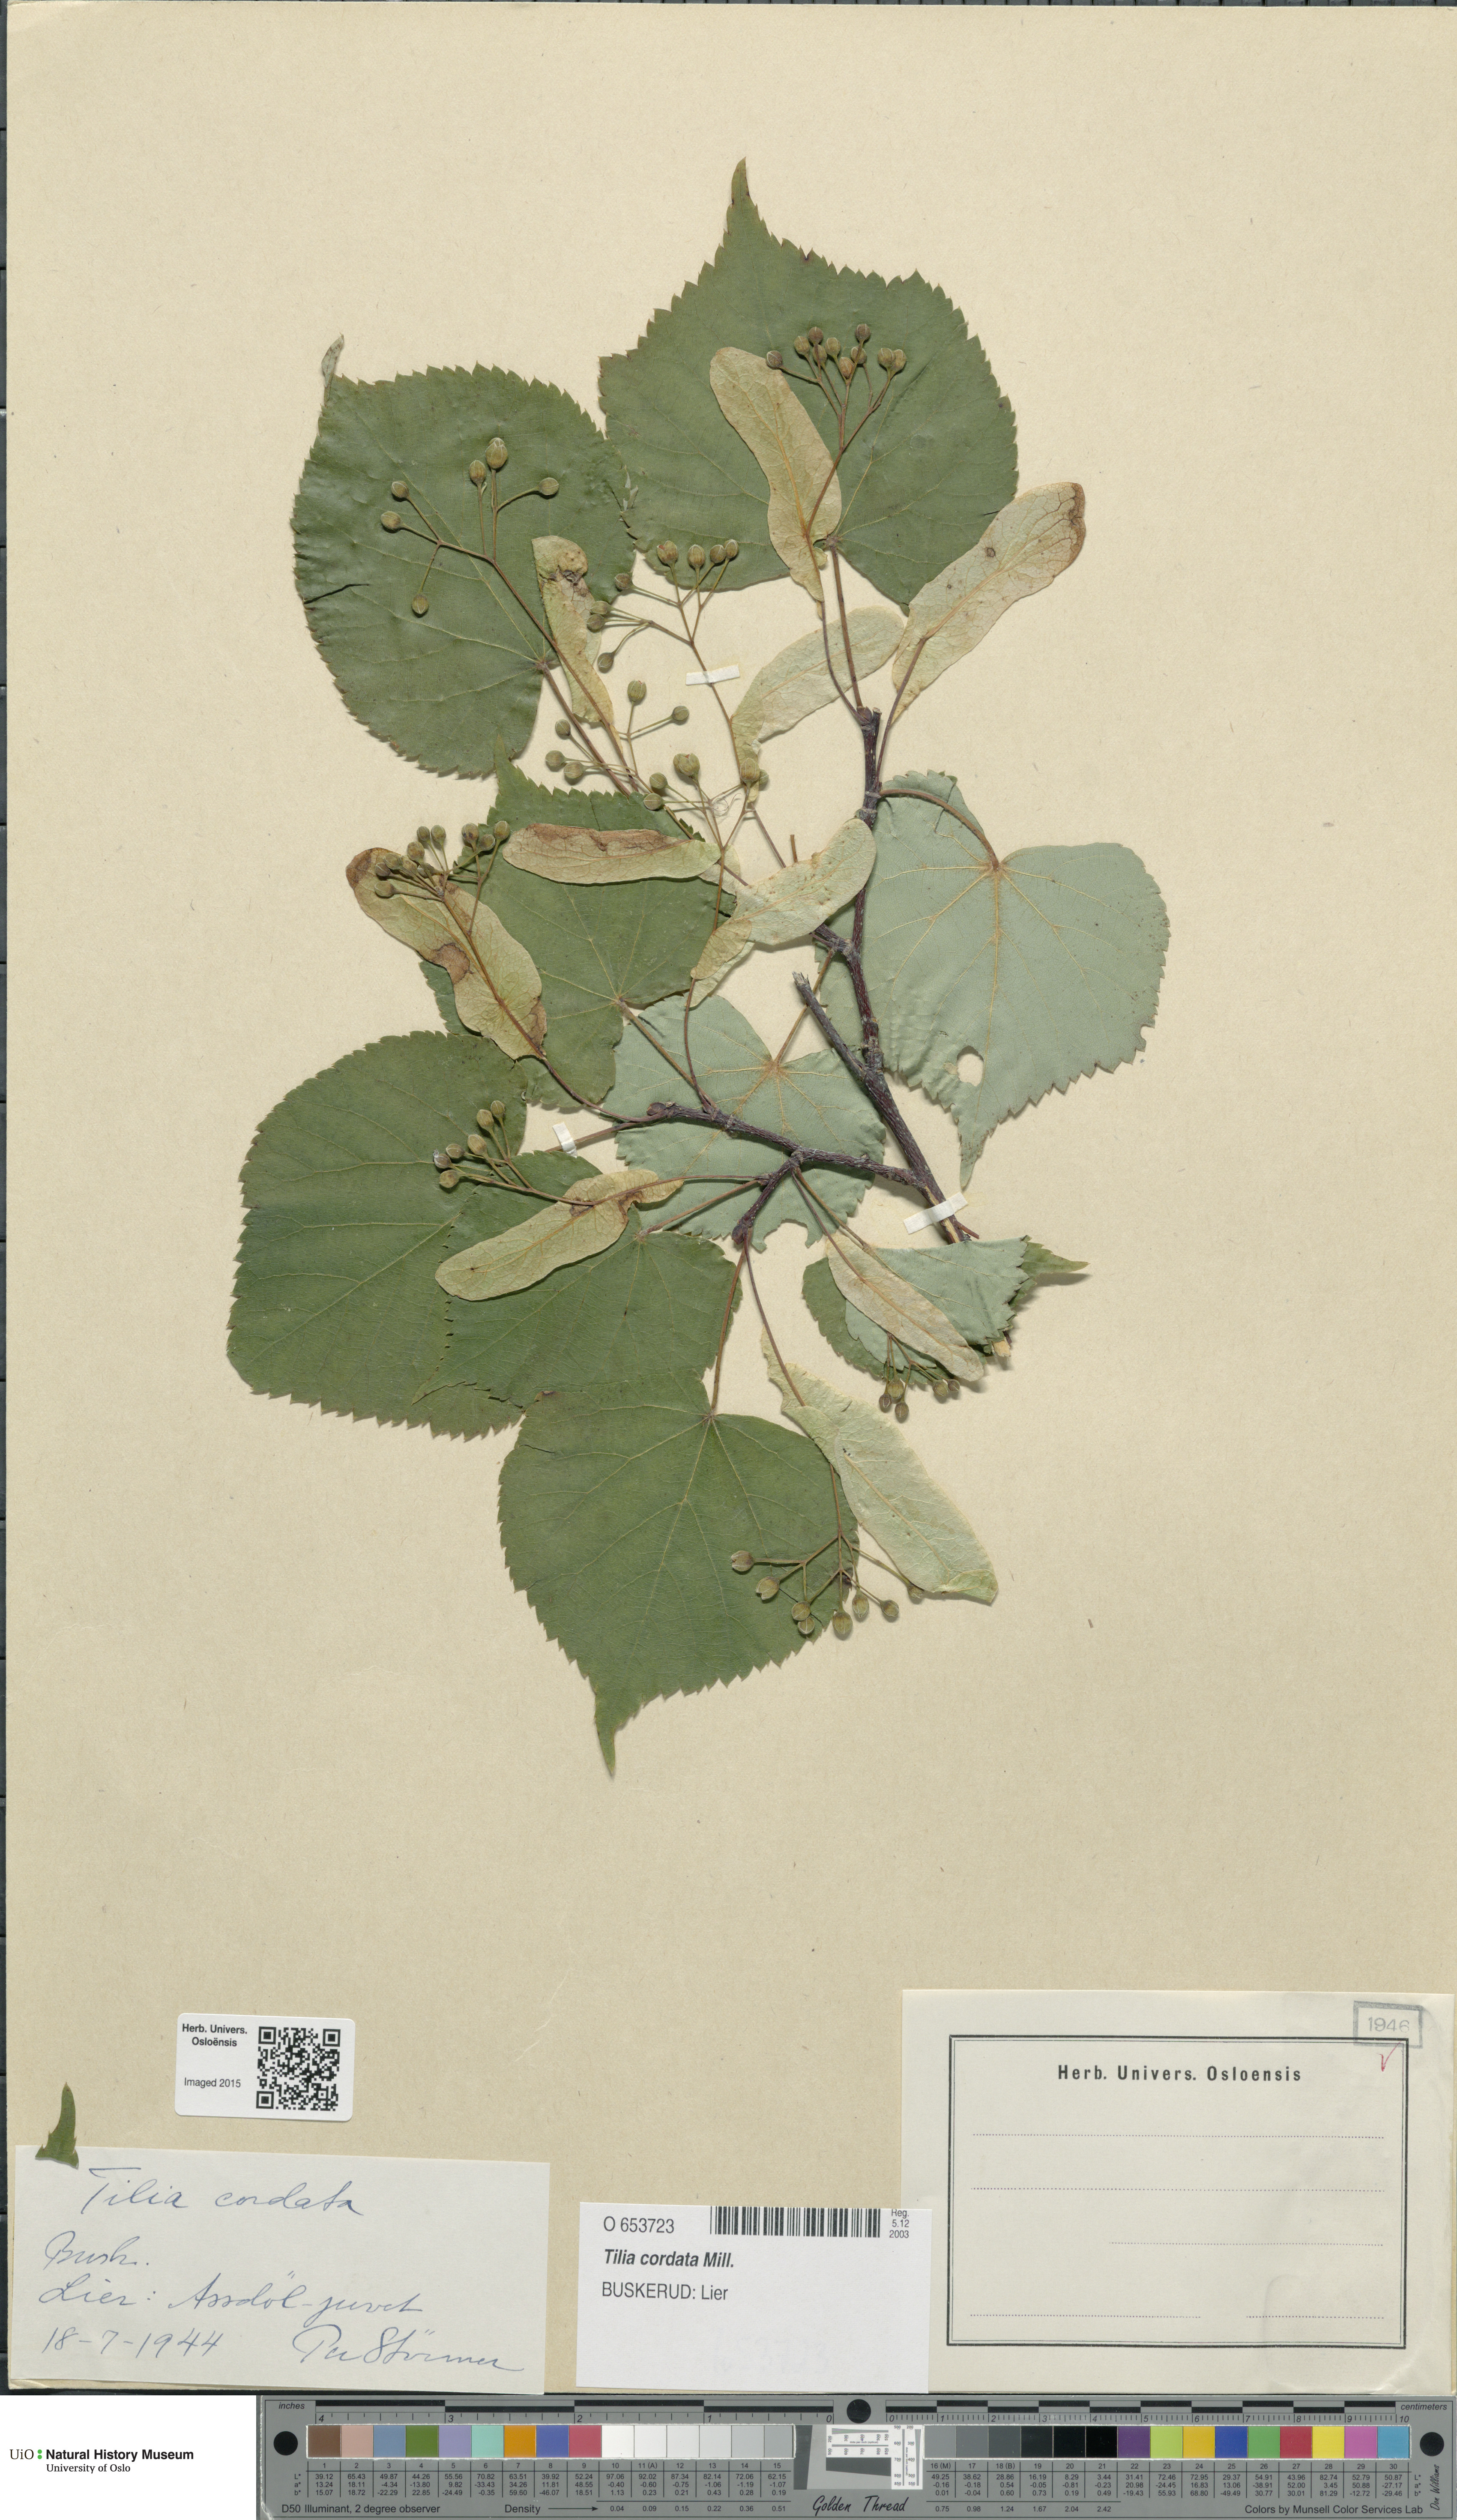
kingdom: Plantae
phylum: Tracheophyta
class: Magnoliopsida
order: Malvales
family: Malvaceae
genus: Tilia
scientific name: Tilia cordata
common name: Small-leaved lime
